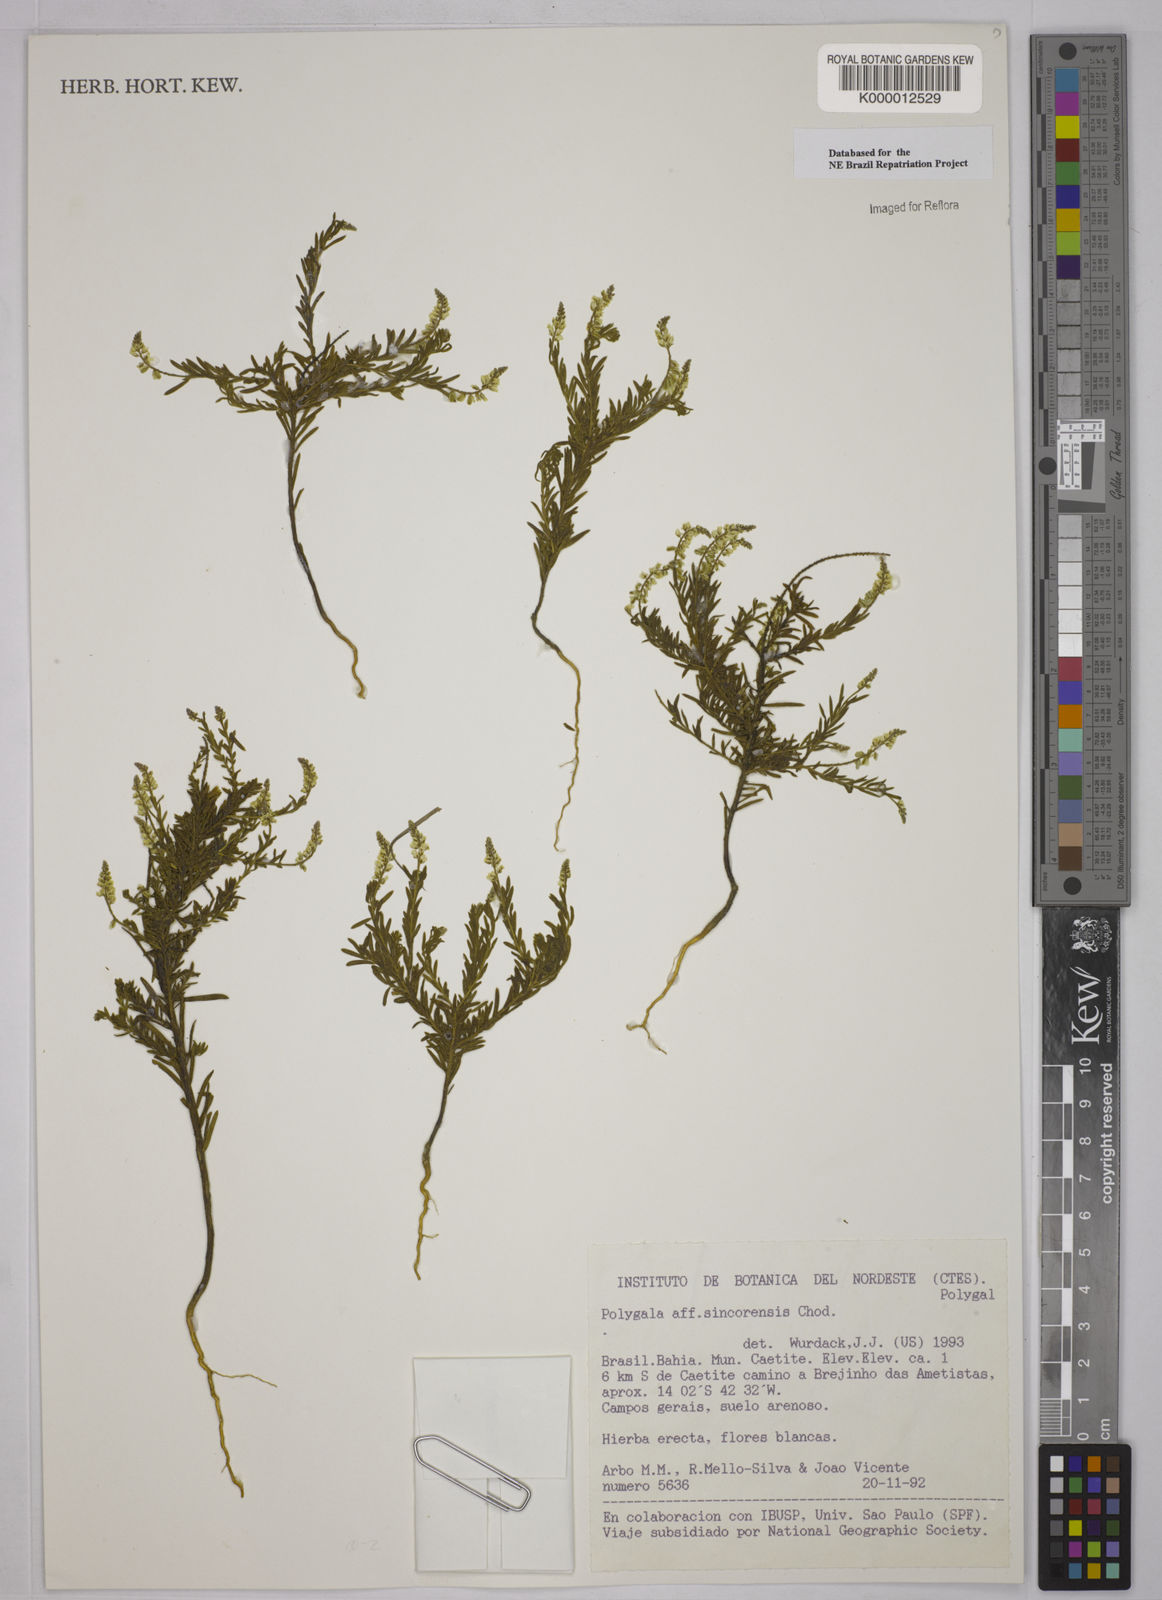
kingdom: Plantae
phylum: Tracheophyta
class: Magnoliopsida
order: Fabales
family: Polygalaceae
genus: Polygala
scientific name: Polygala
